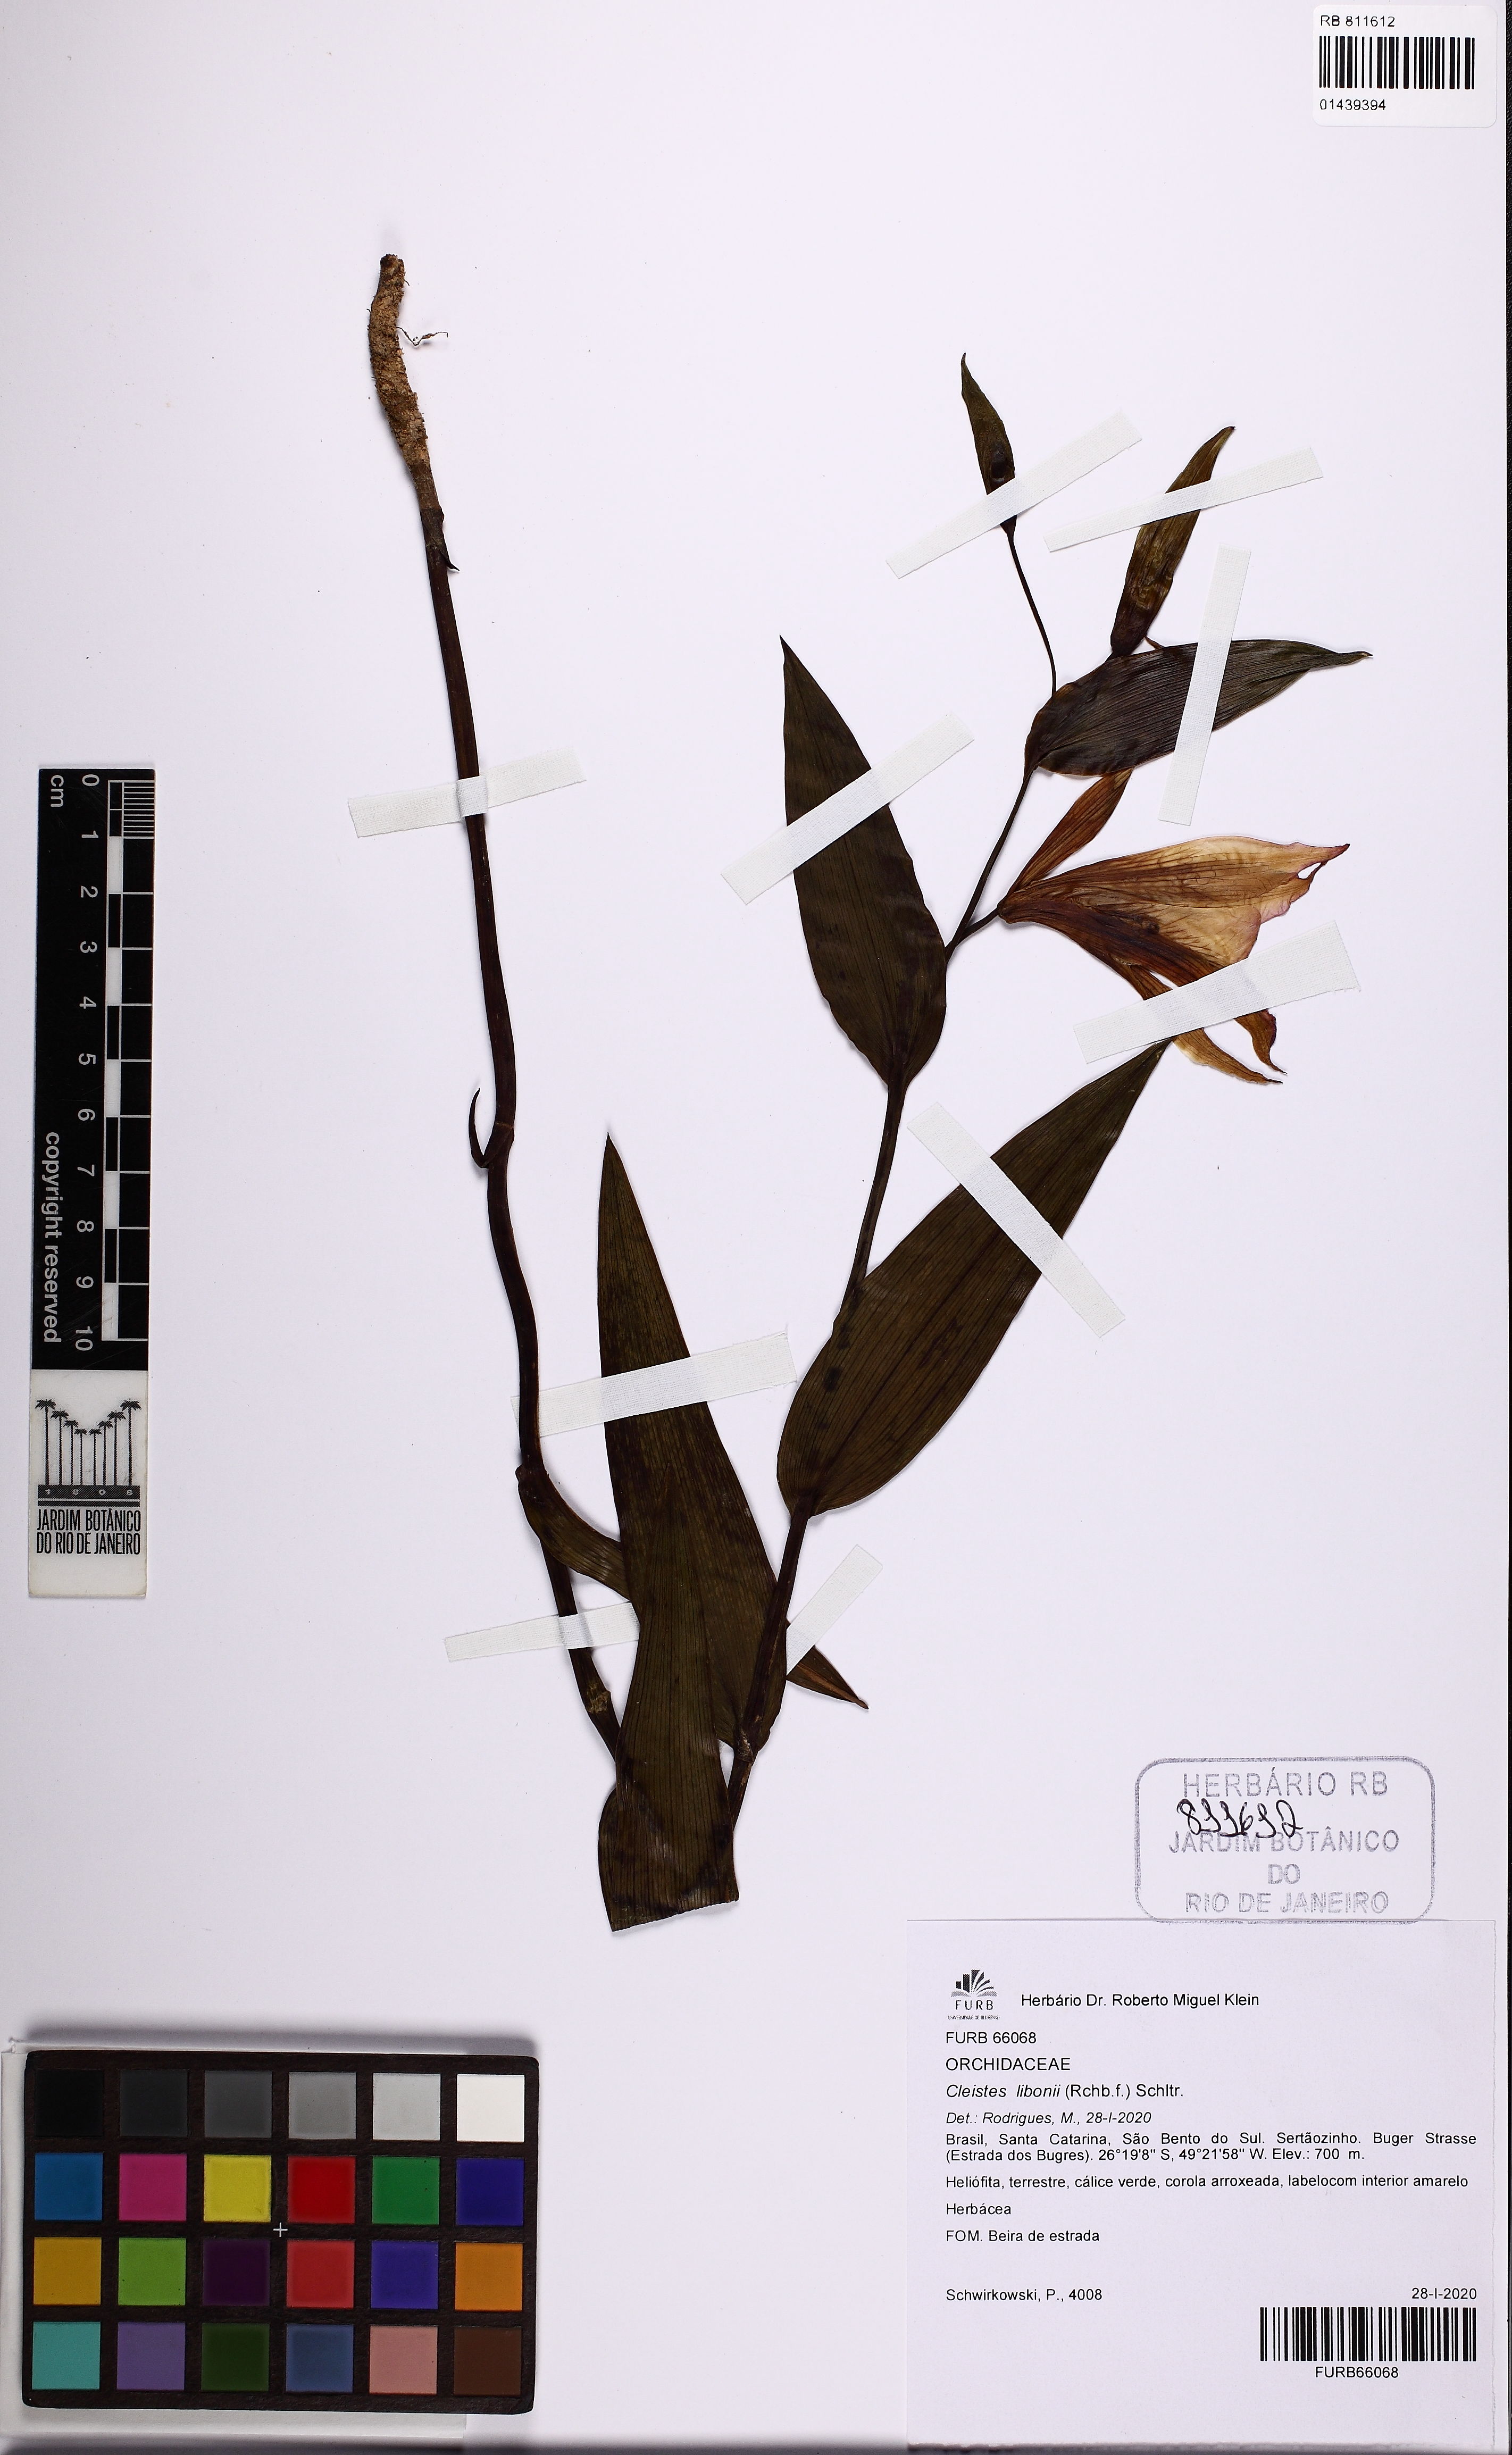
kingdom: Plantae
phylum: Tracheophyta
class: Liliopsida
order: Asparagales
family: Orchidaceae
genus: Cleistes
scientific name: Cleistes libonii
